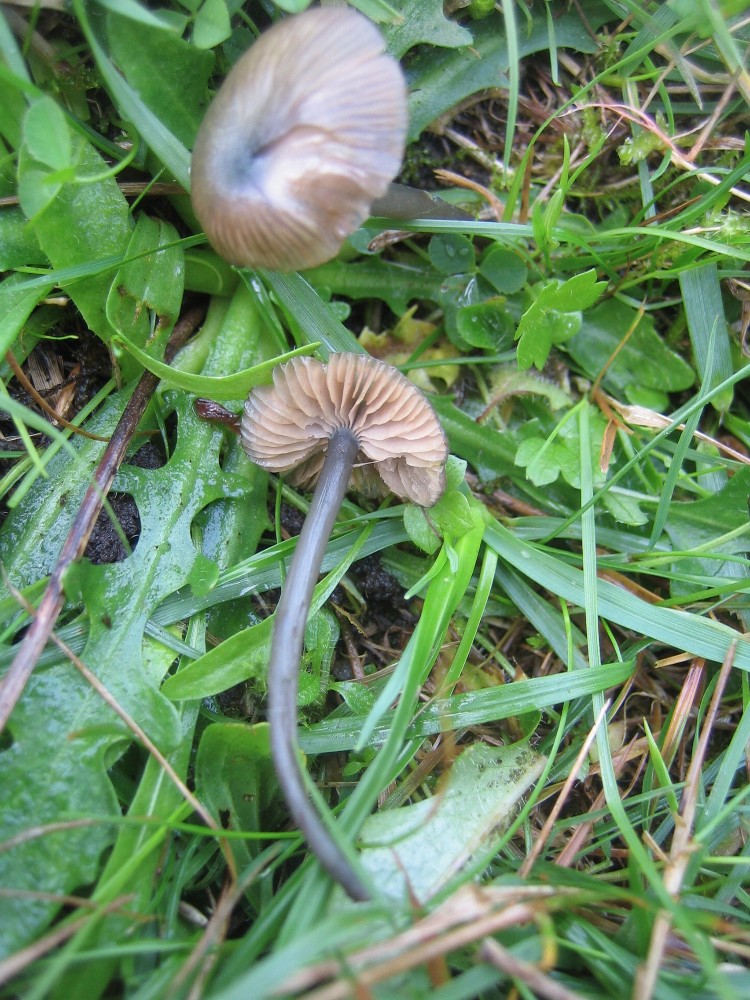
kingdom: Fungi
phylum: Basidiomycota
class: Agaricomycetes
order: Agaricales
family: Entolomataceae
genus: Entoloma
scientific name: Entoloma
